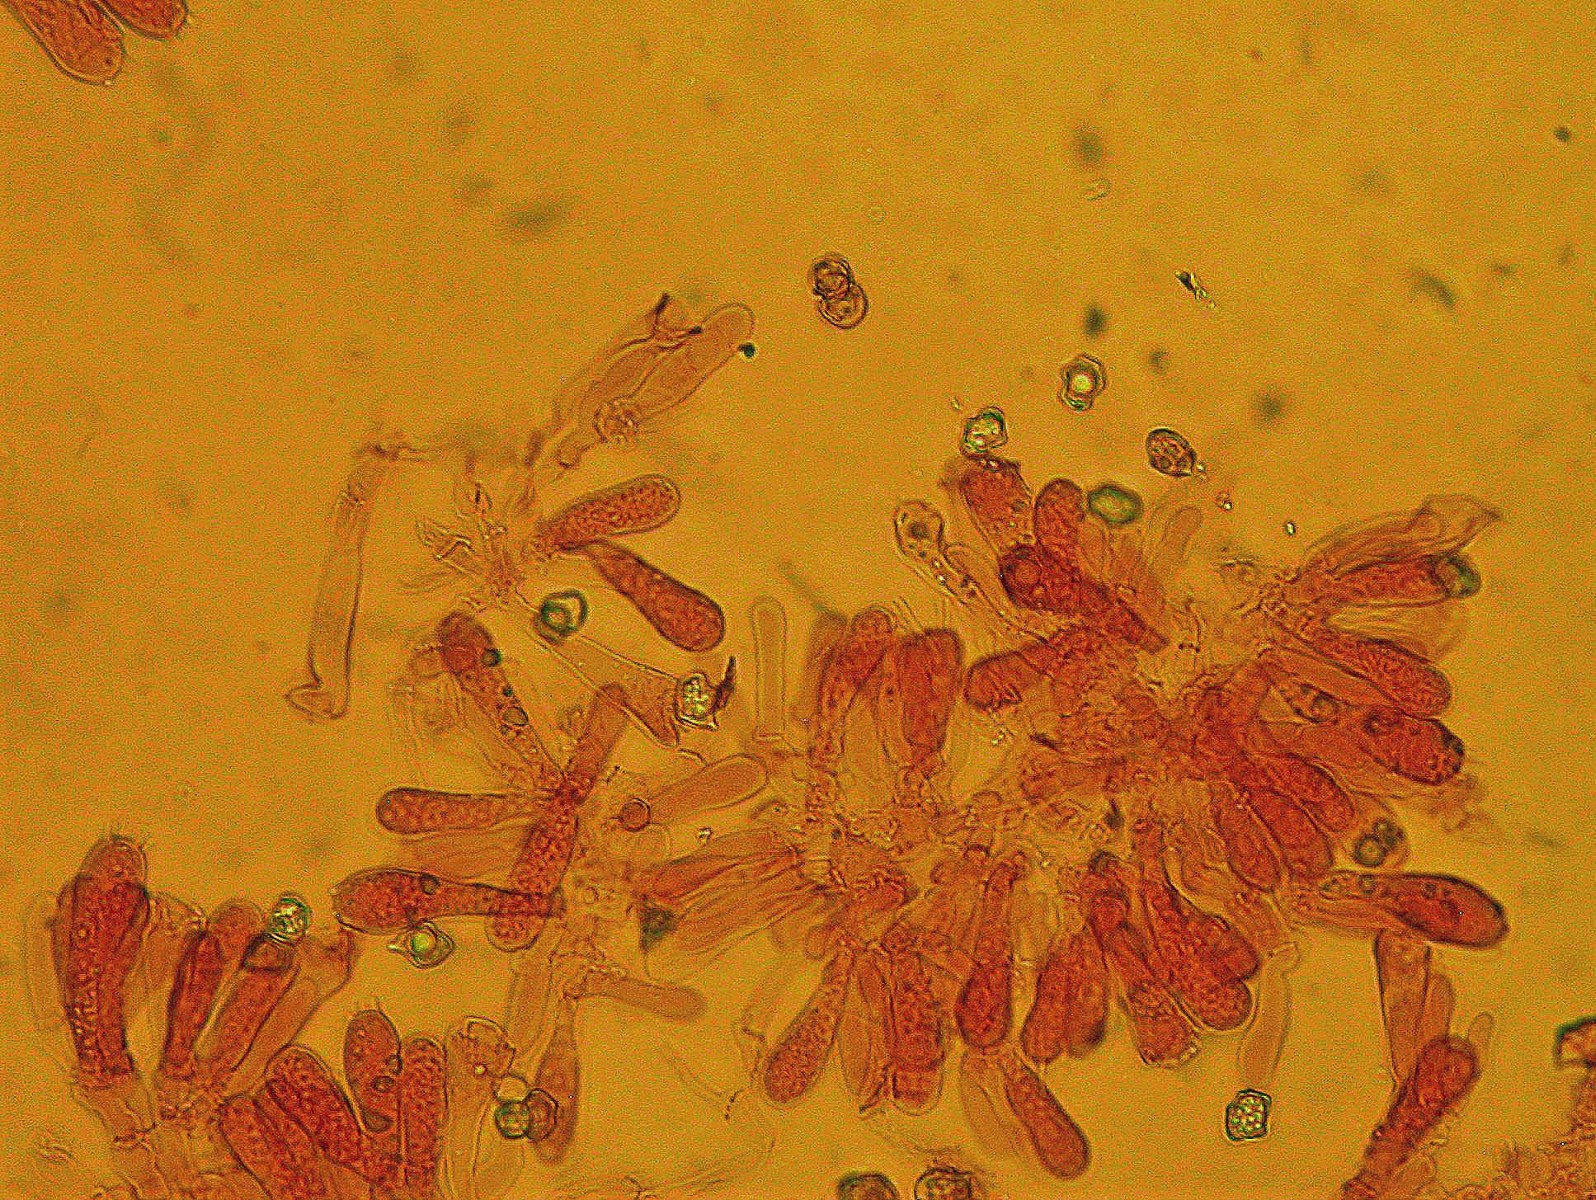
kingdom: Fungi
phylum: Basidiomycota
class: Agaricomycetes
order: Agaricales
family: Entolomataceae
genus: Entoloma
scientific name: Entoloma
